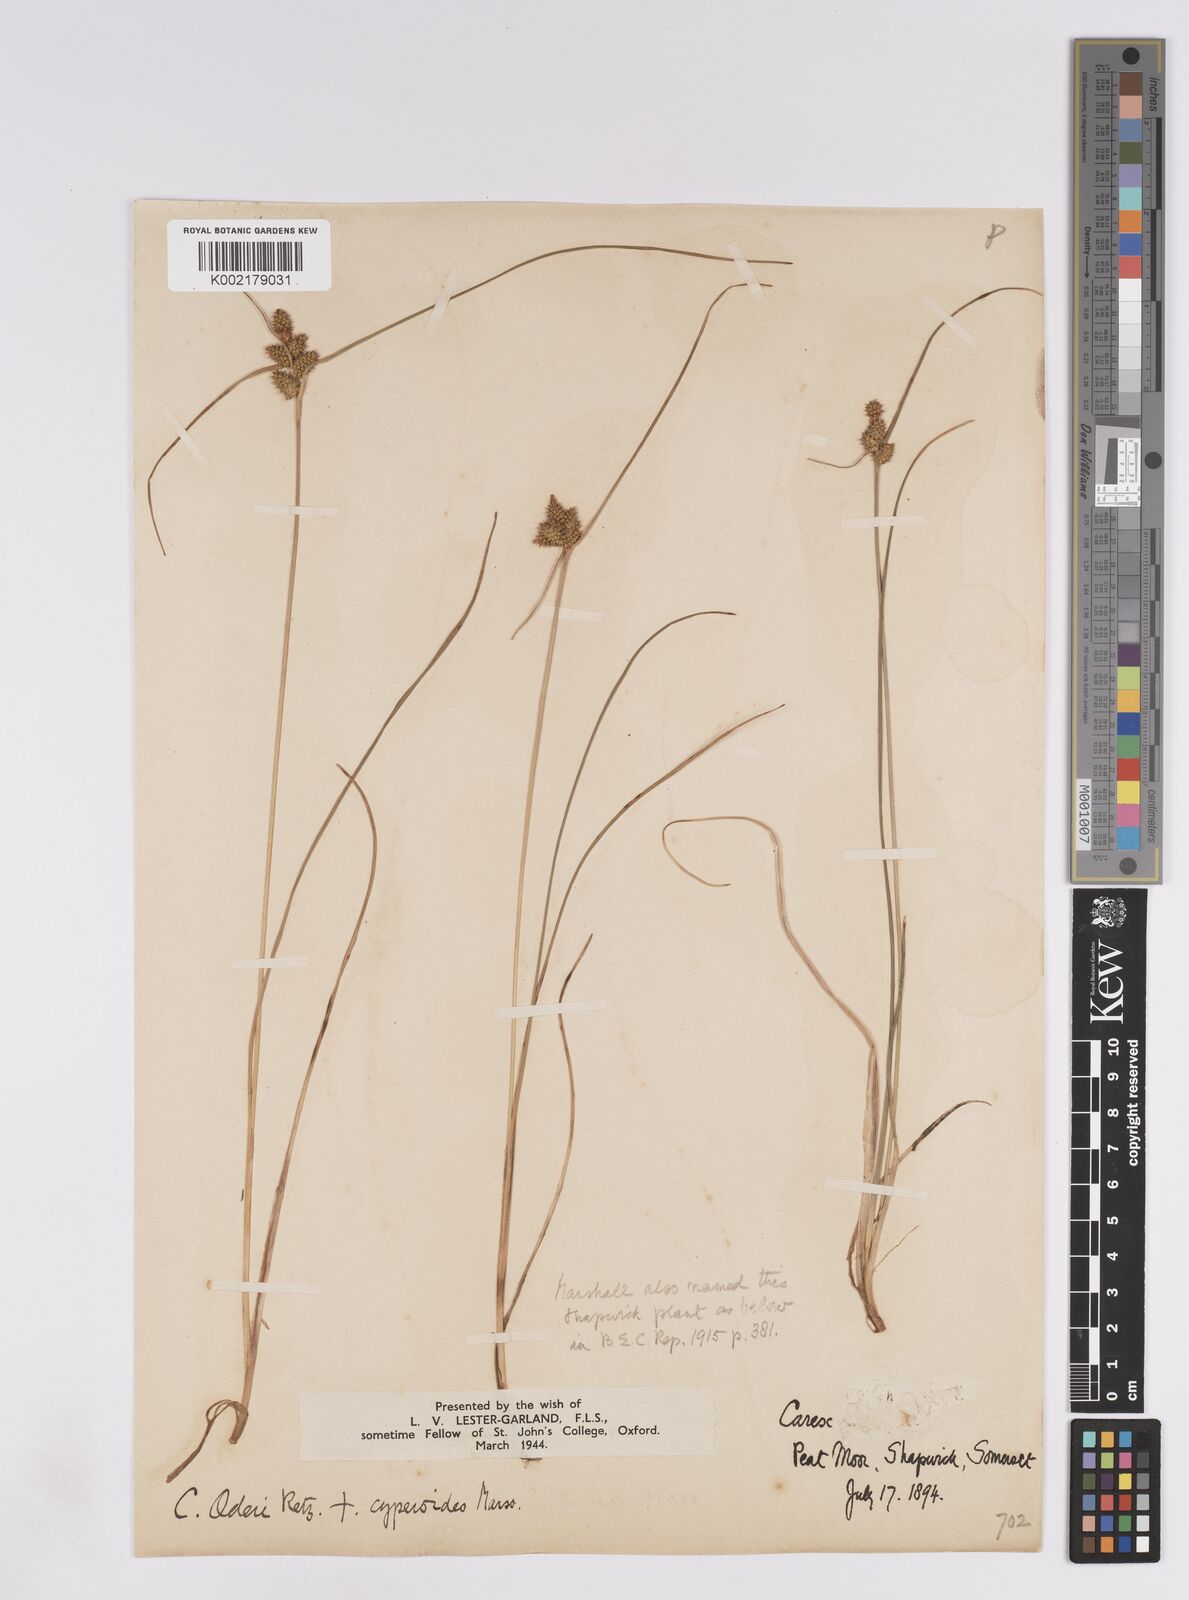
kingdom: Plantae
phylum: Tracheophyta
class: Liliopsida
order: Poales
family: Cyperaceae
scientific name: Cyperaceae
